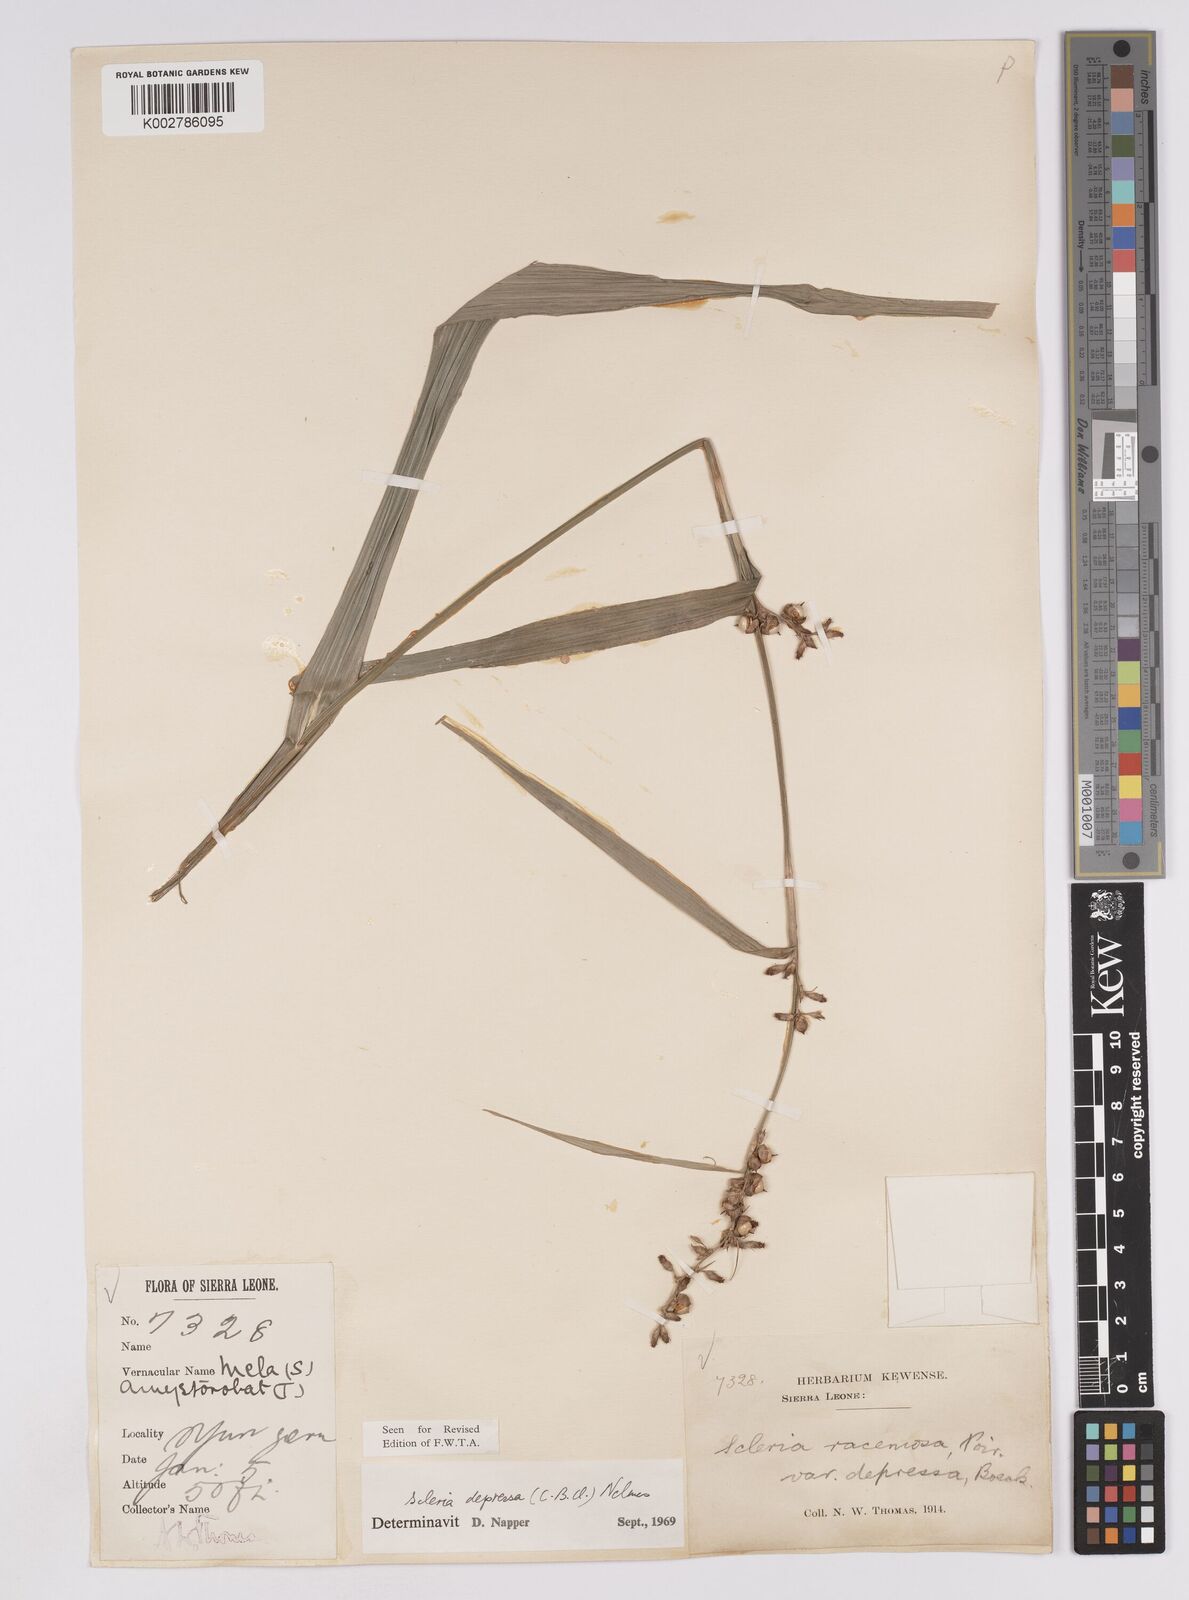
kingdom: Plantae
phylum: Tracheophyta
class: Liliopsida
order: Poales
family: Cyperaceae
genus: Scleria
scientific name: Scleria depressa
